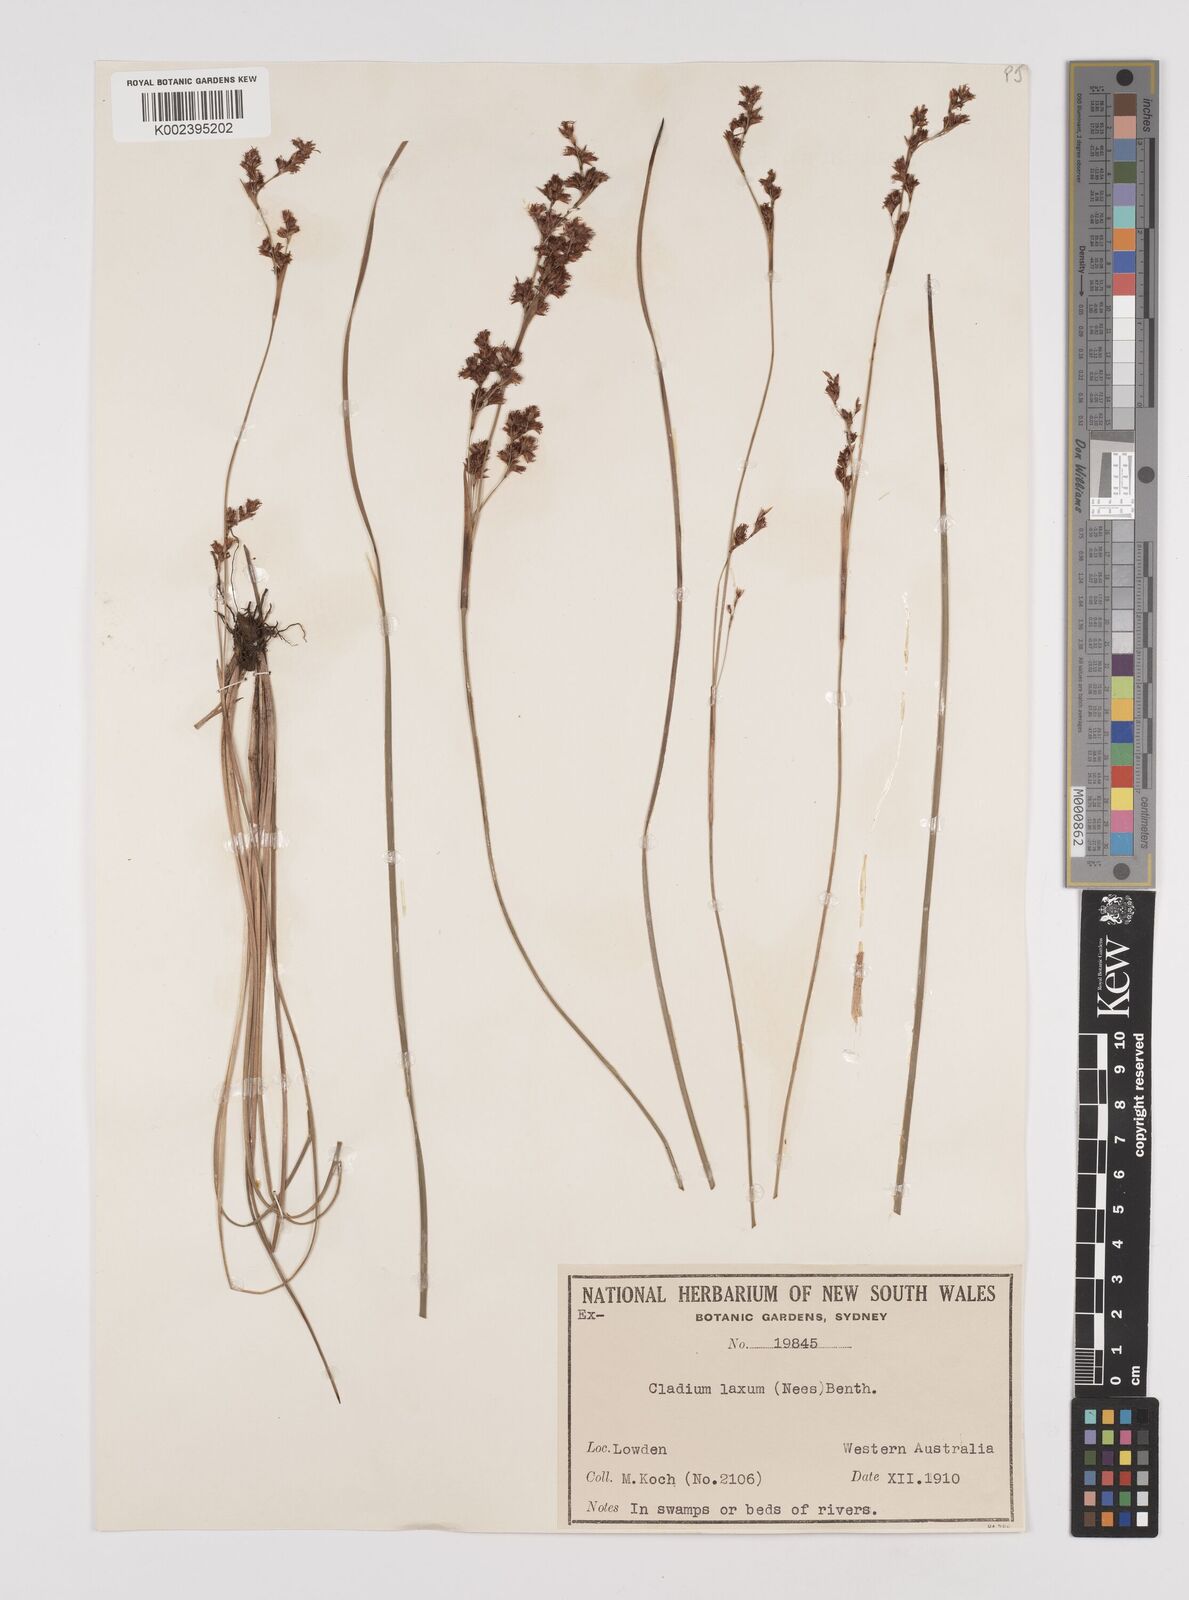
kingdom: Plantae
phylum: Tracheophyta
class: Liliopsida
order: Poales
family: Cyperaceae
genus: Machaerina
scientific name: Machaerina laxa
